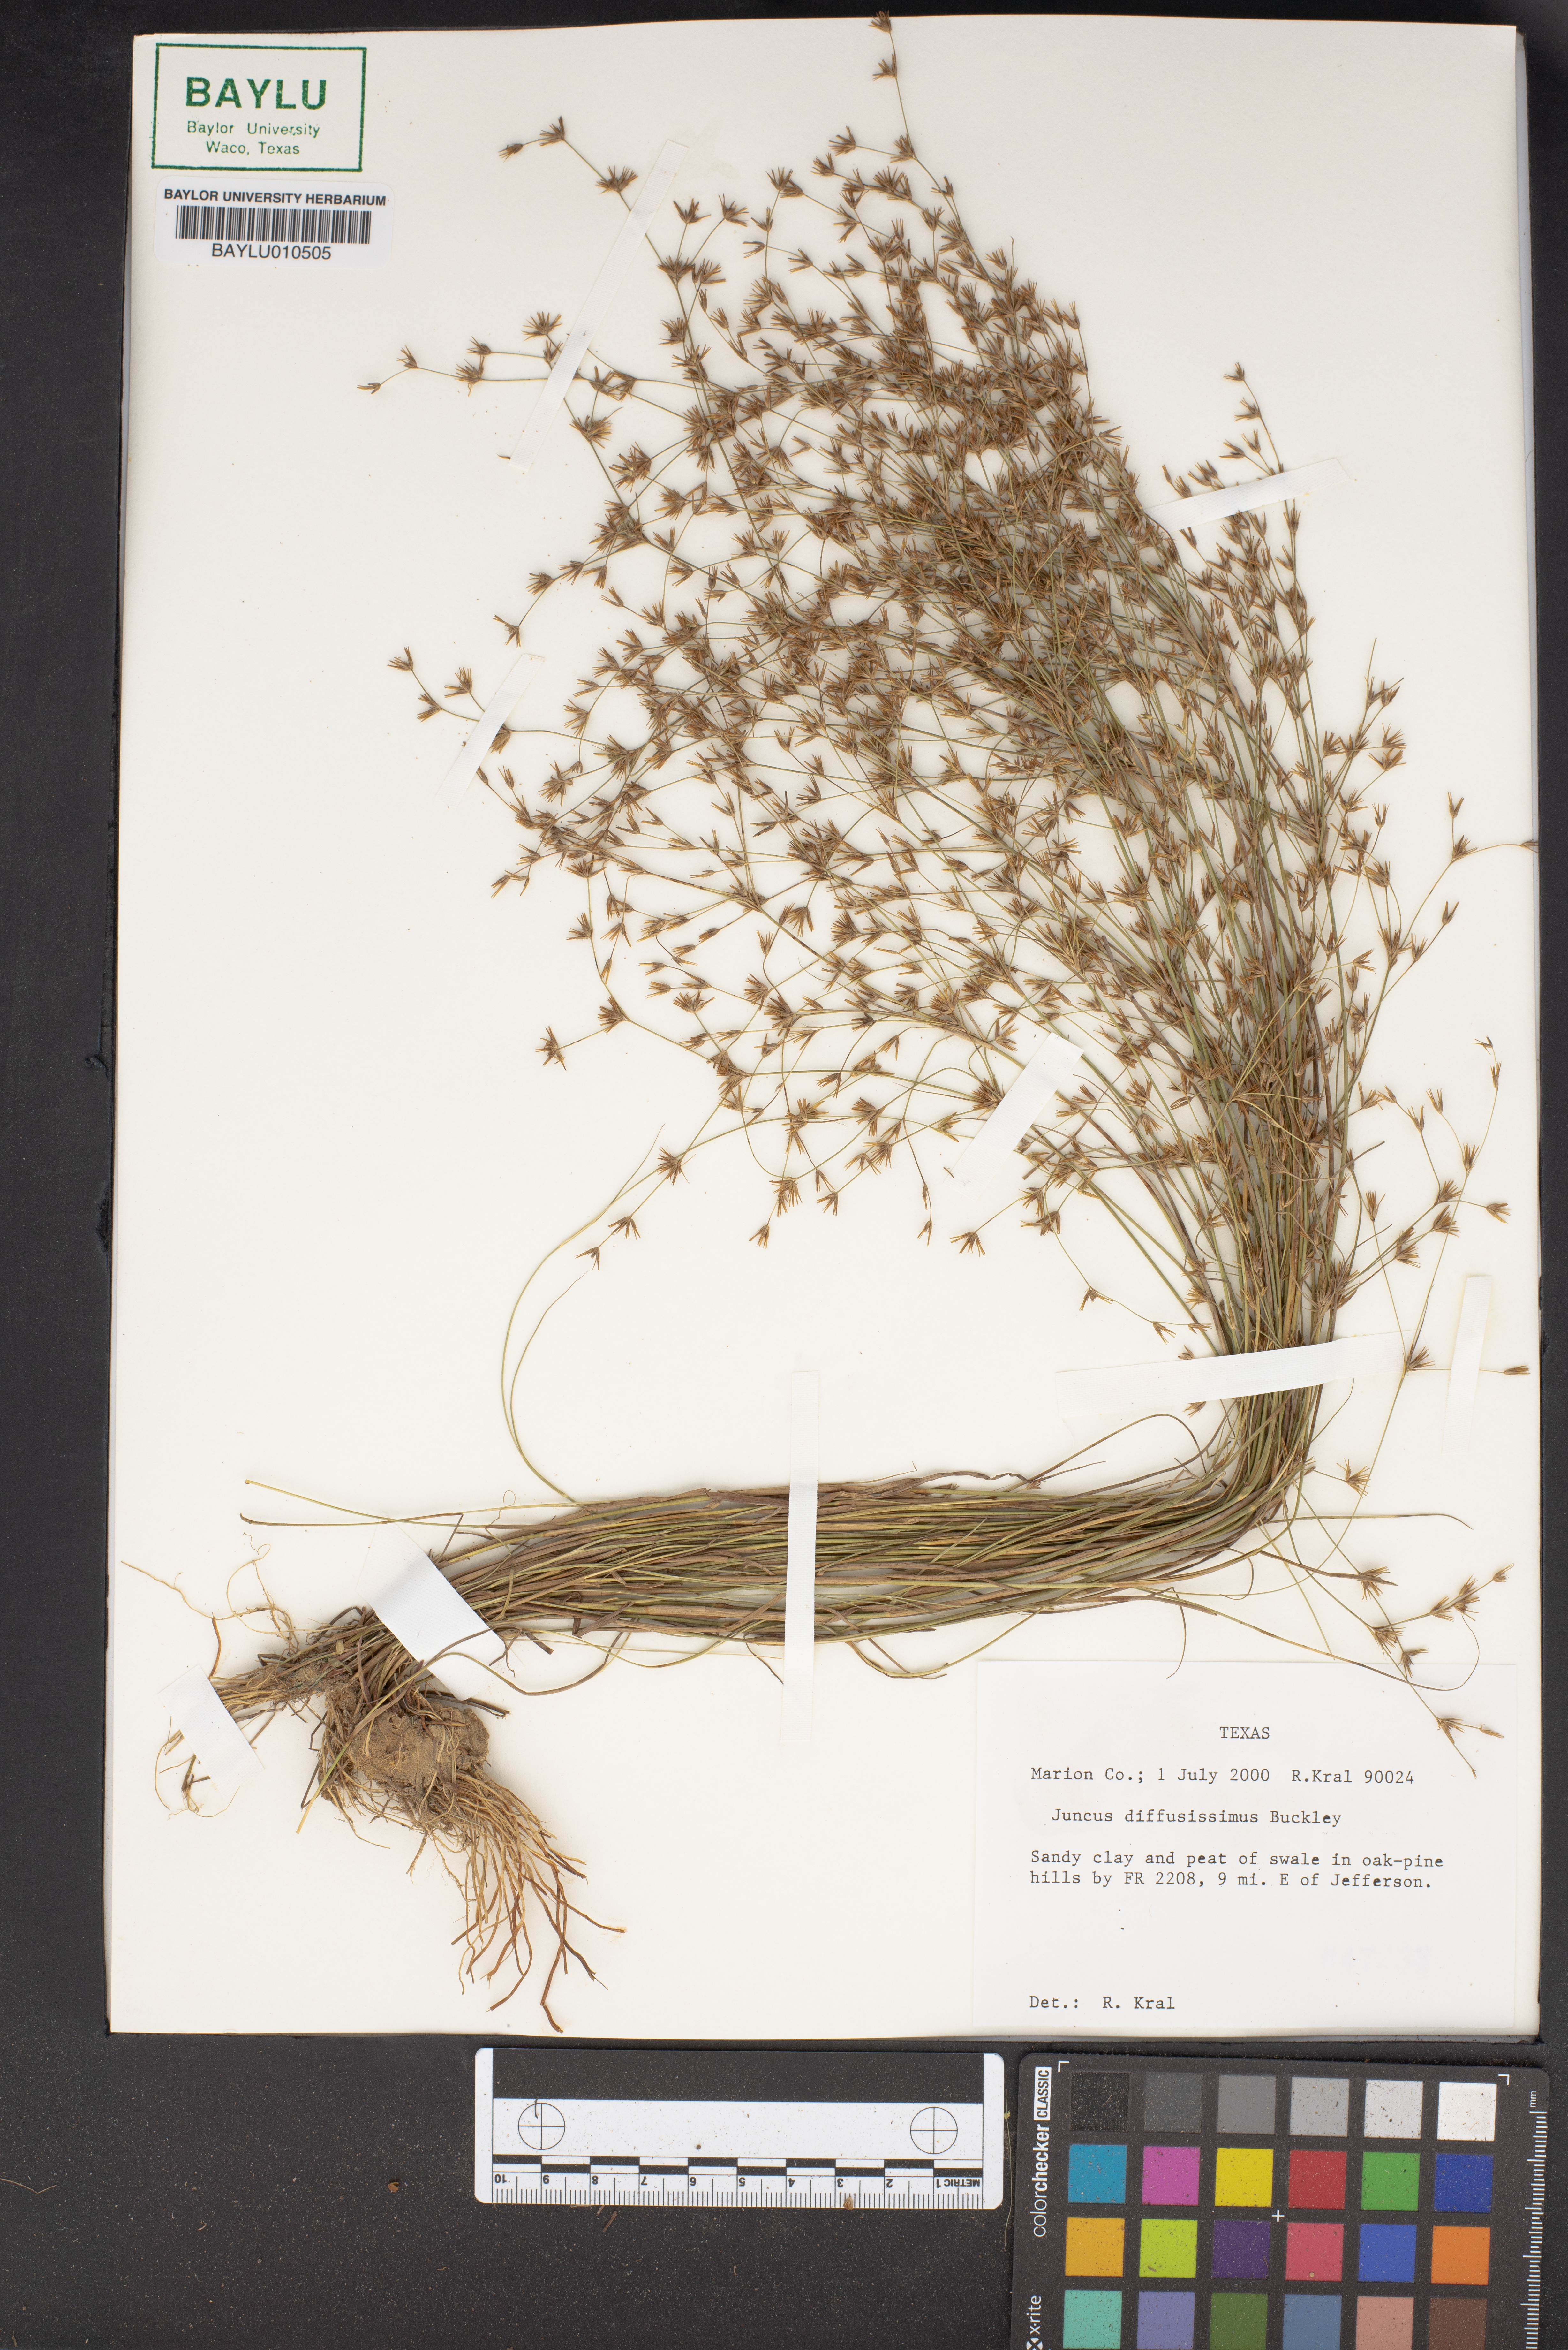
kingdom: Plantae
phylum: Tracheophyta
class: Liliopsida
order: Poales
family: Juncaceae
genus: Juncus
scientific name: Juncus diffusissimus
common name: Slimpod rush
